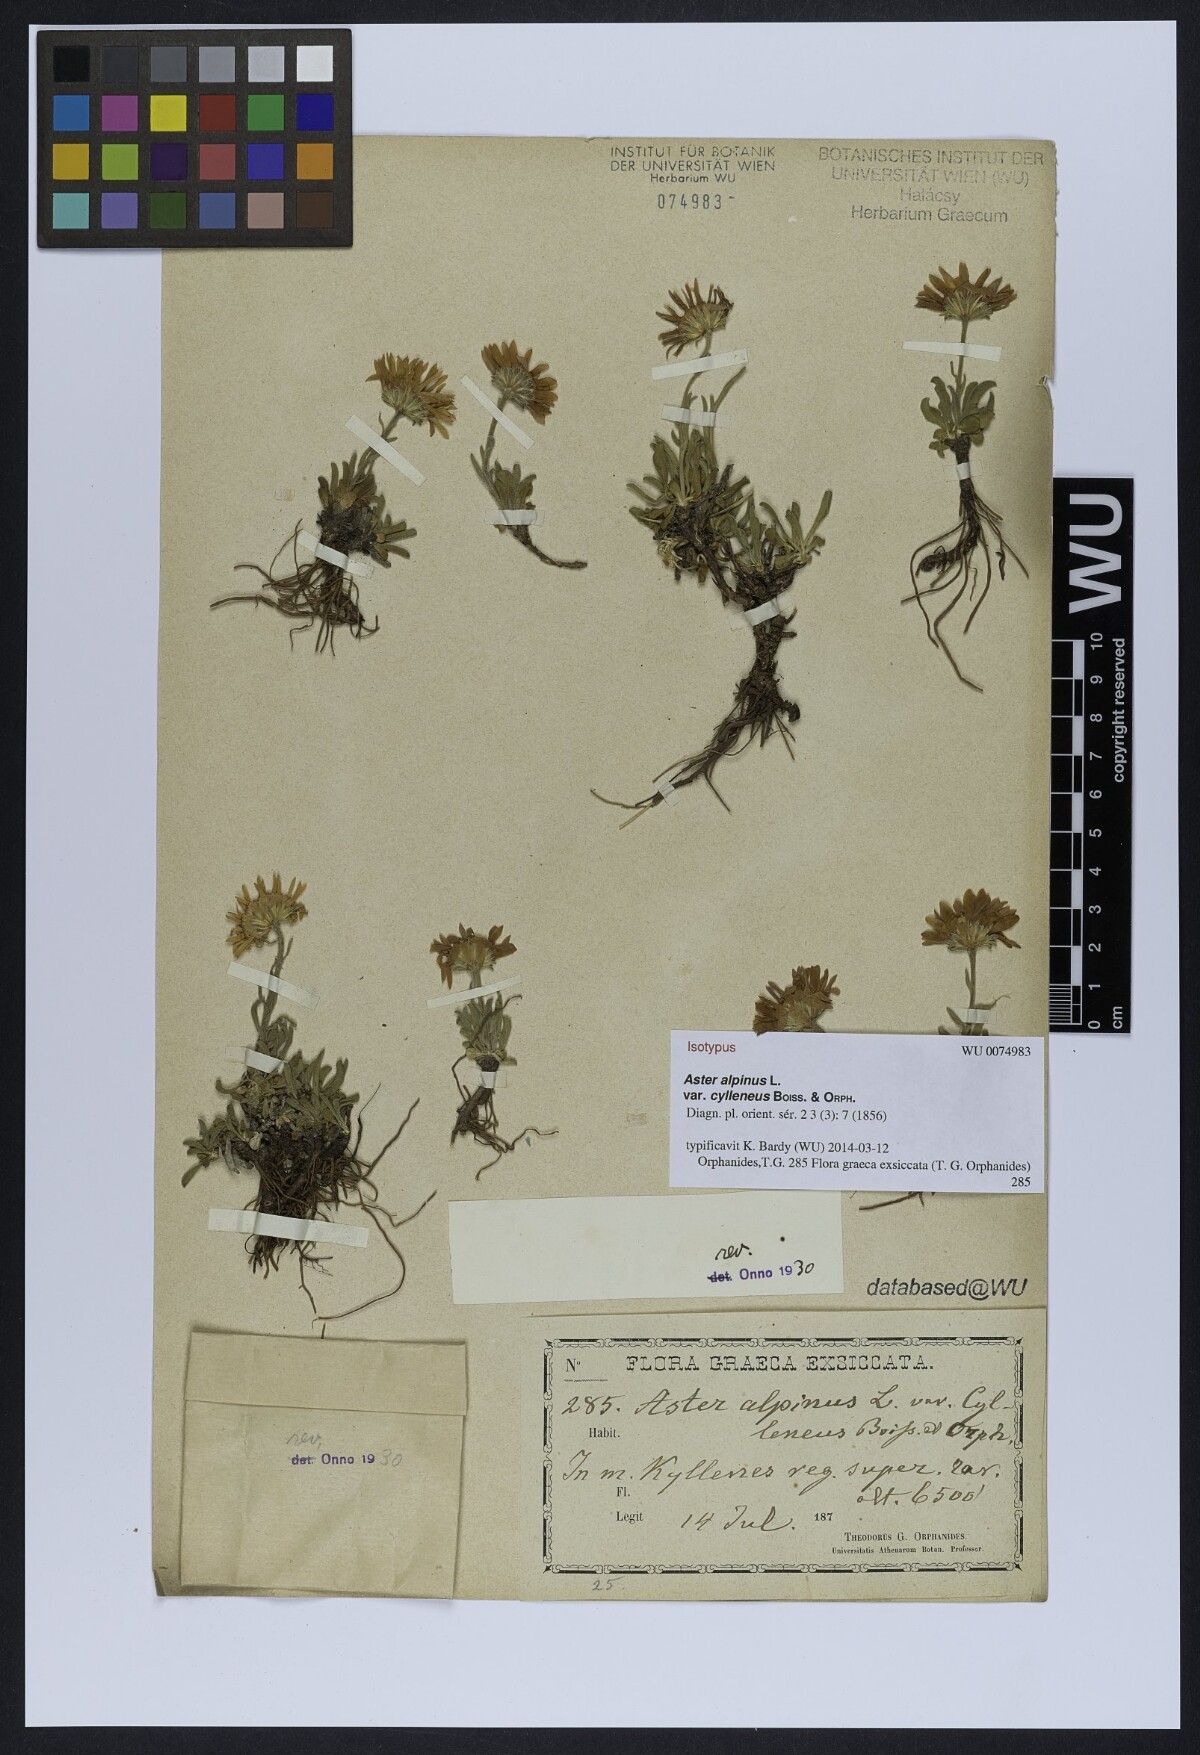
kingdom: Plantae
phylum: Tracheophyta
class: Magnoliopsida
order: Asterales
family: Asteraceae
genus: Aster
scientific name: Aster alpinus
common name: Alpine aster
